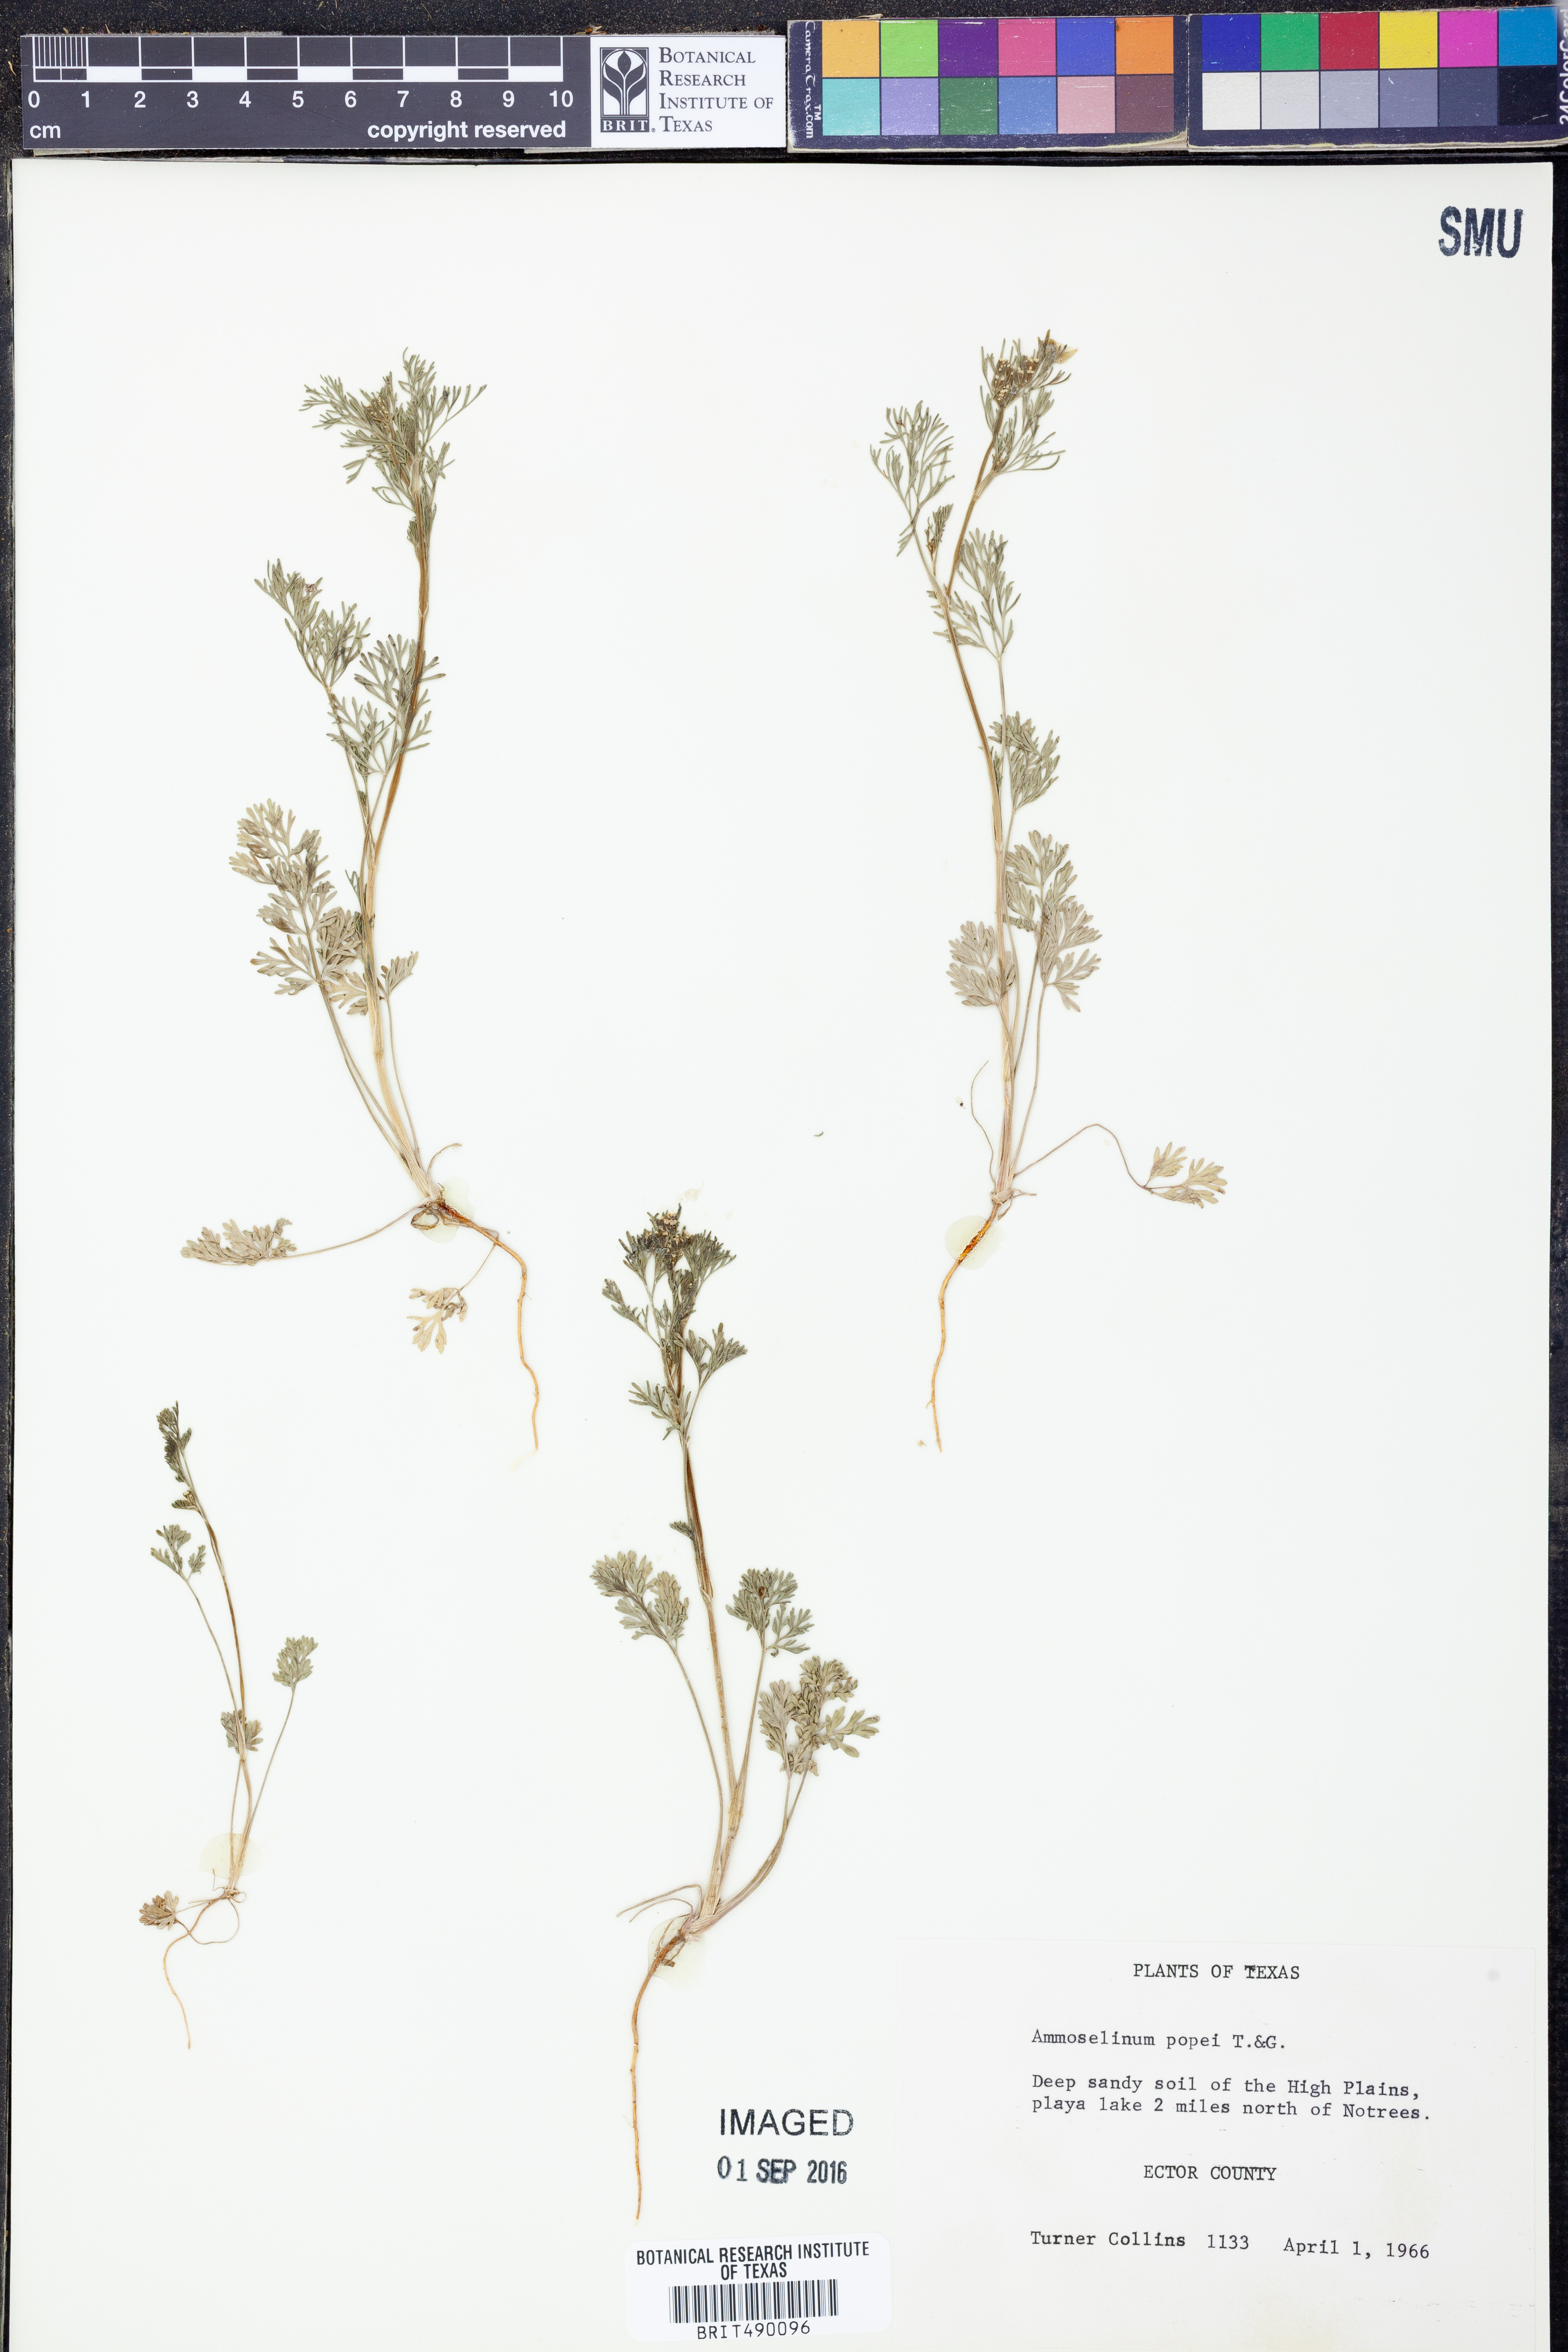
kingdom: Plantae
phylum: Tracheophyta
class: Magnoliopsida
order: Apiales
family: Apiaceae
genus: Ammoselinum
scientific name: Ammoselinum popei
